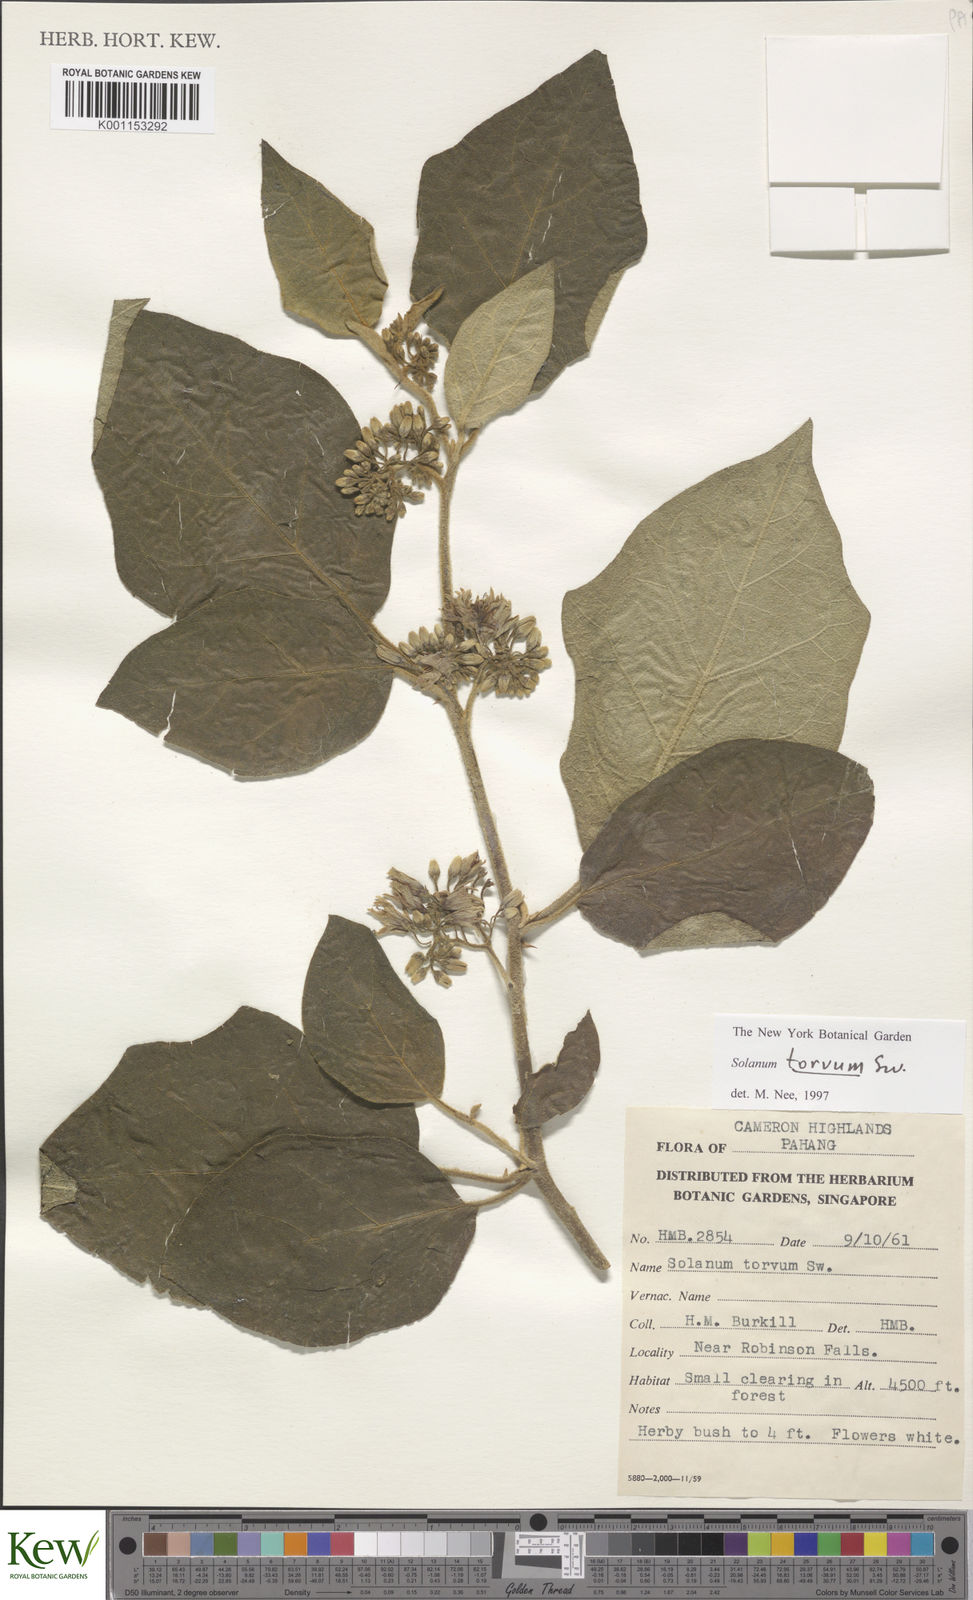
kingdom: Plantae
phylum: Tracheophyta
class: Magnoliopsida
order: Solanales
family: Solanaceae
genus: Solanum
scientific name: Solanum torvum
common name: Turkey berry
